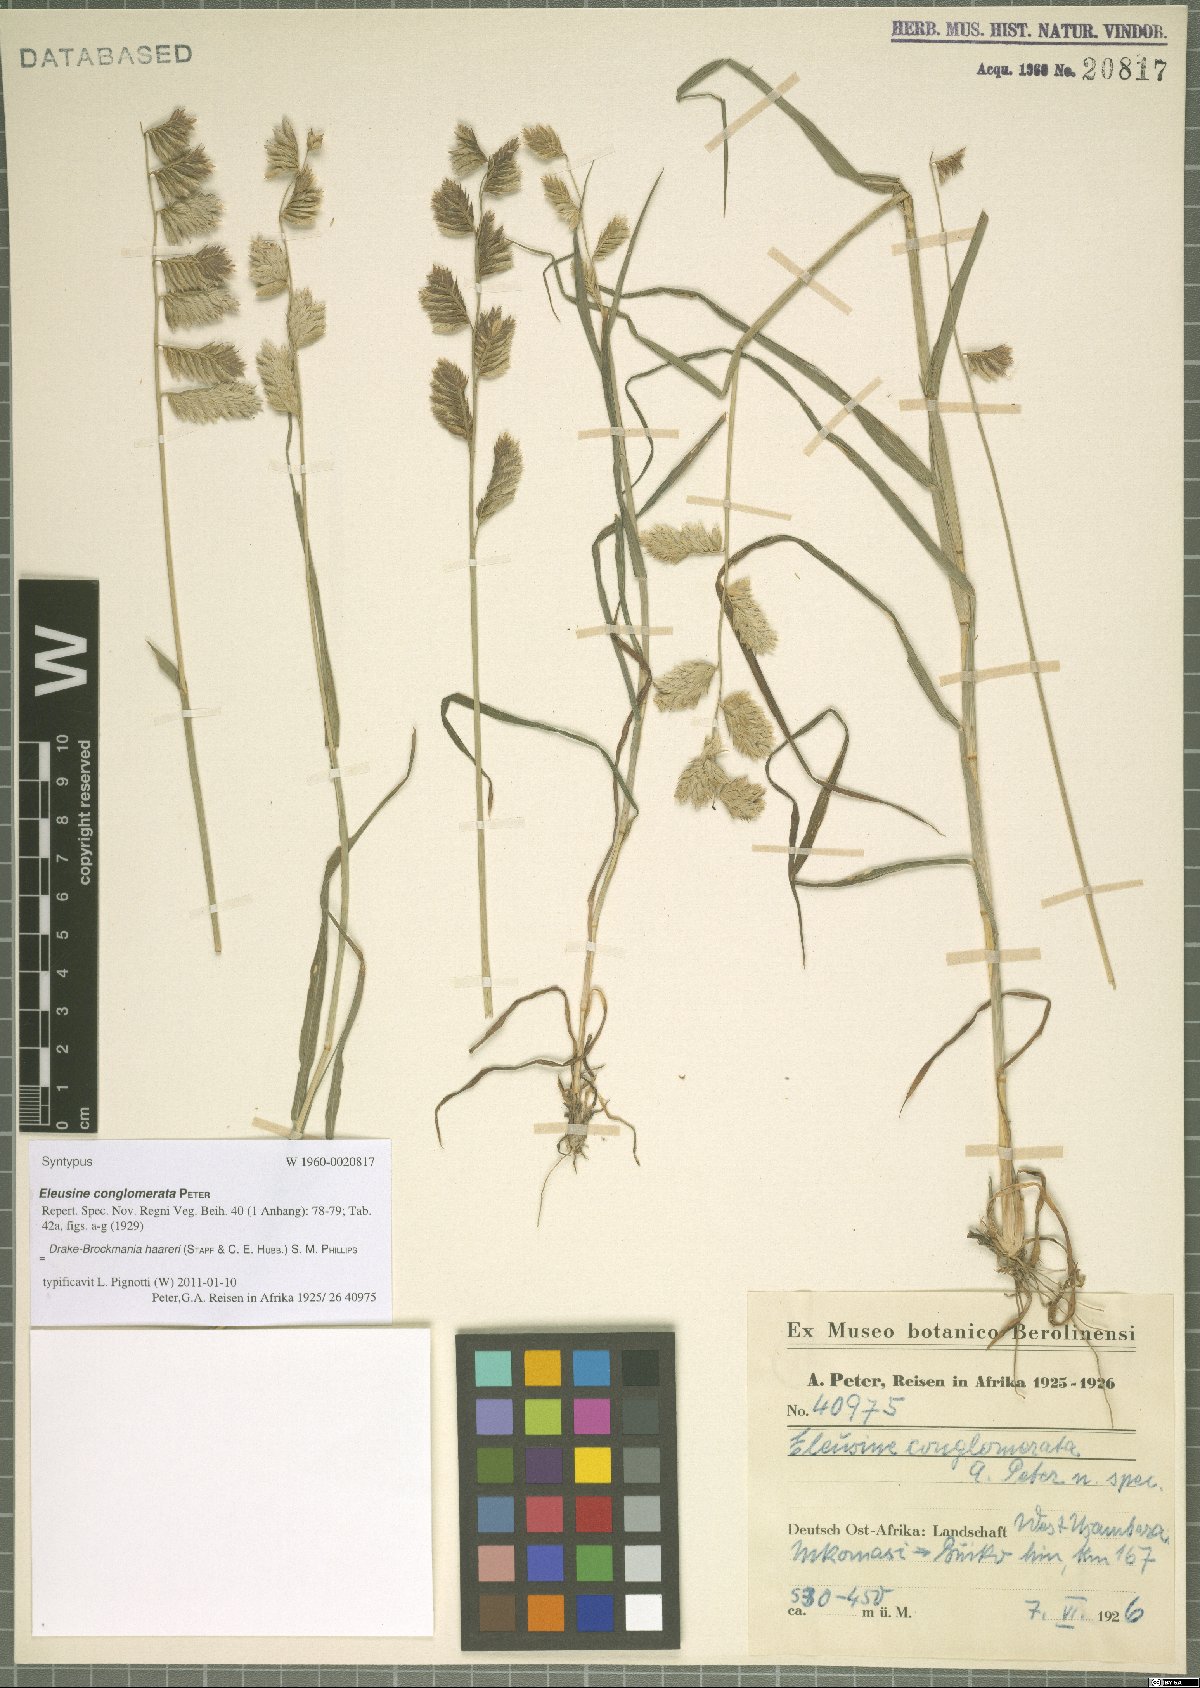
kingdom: Plantae
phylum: Tracheophyta
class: Liliopsida
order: Poales
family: Poaceae
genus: Dinebra
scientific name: Dinebra haareri
